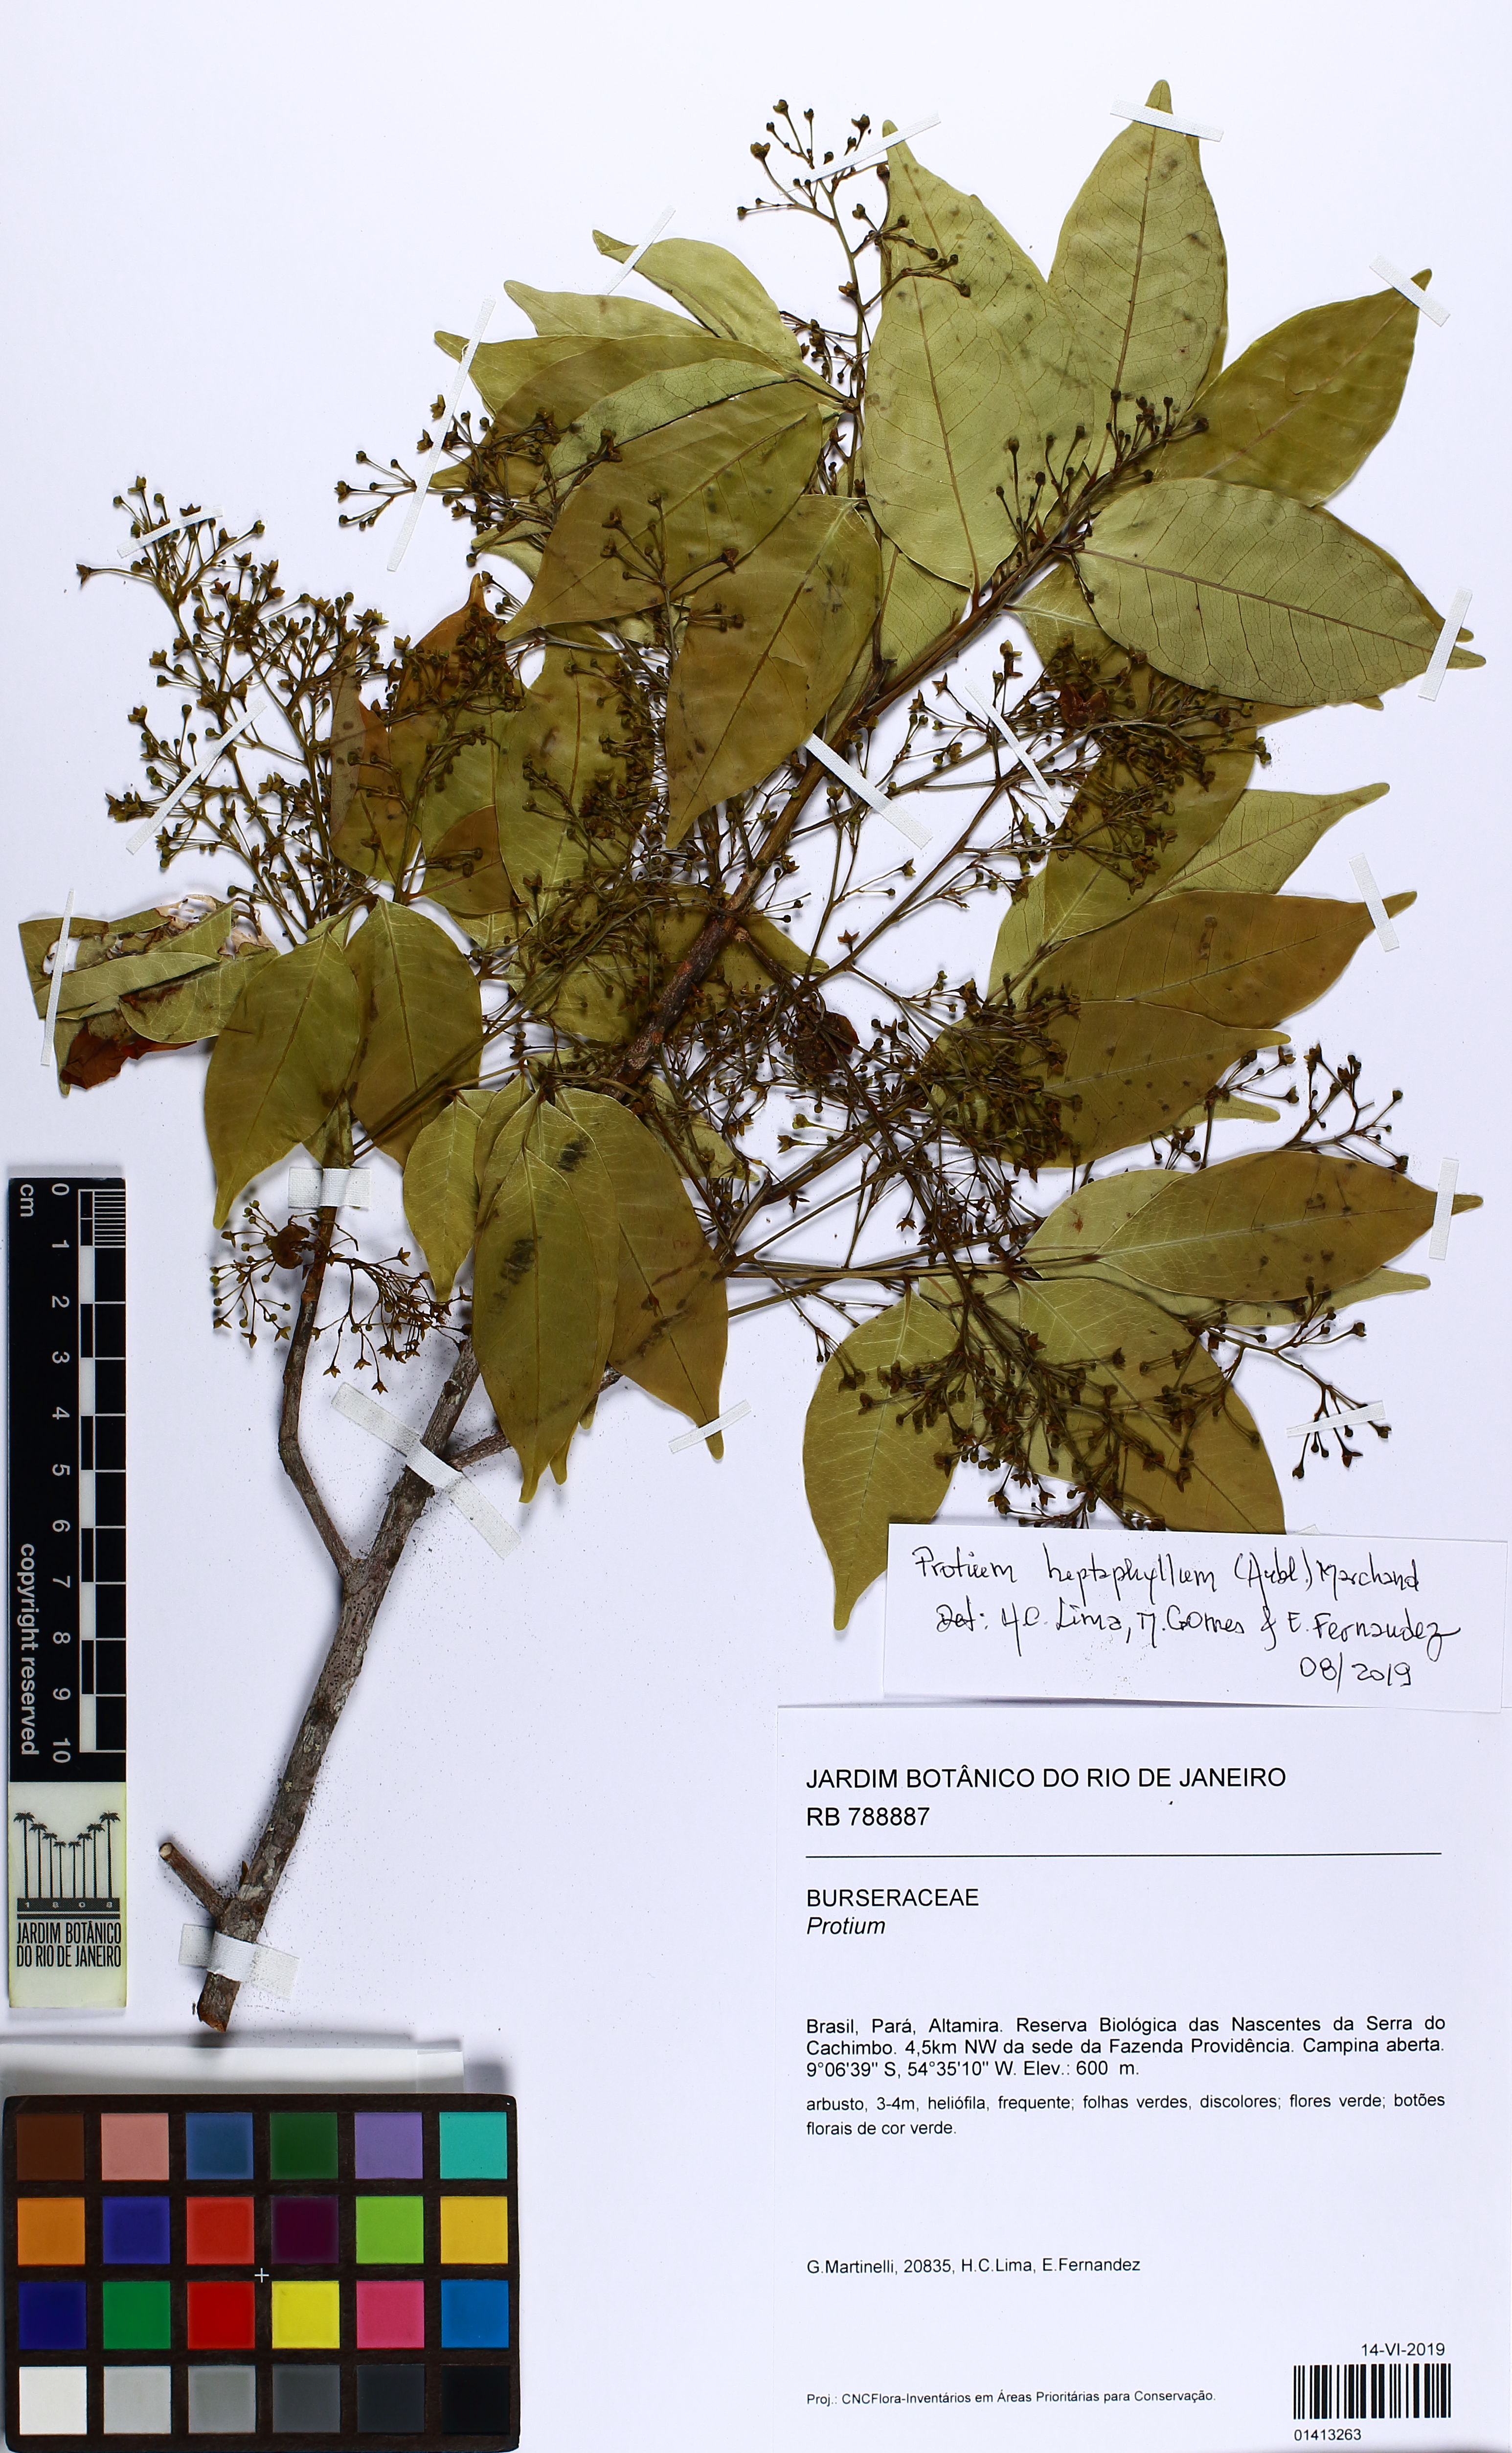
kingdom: Plantae
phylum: Tracheophyta
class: Magnoliopsida
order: Sapindales
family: Burseraceae
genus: Protium
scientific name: Protium
